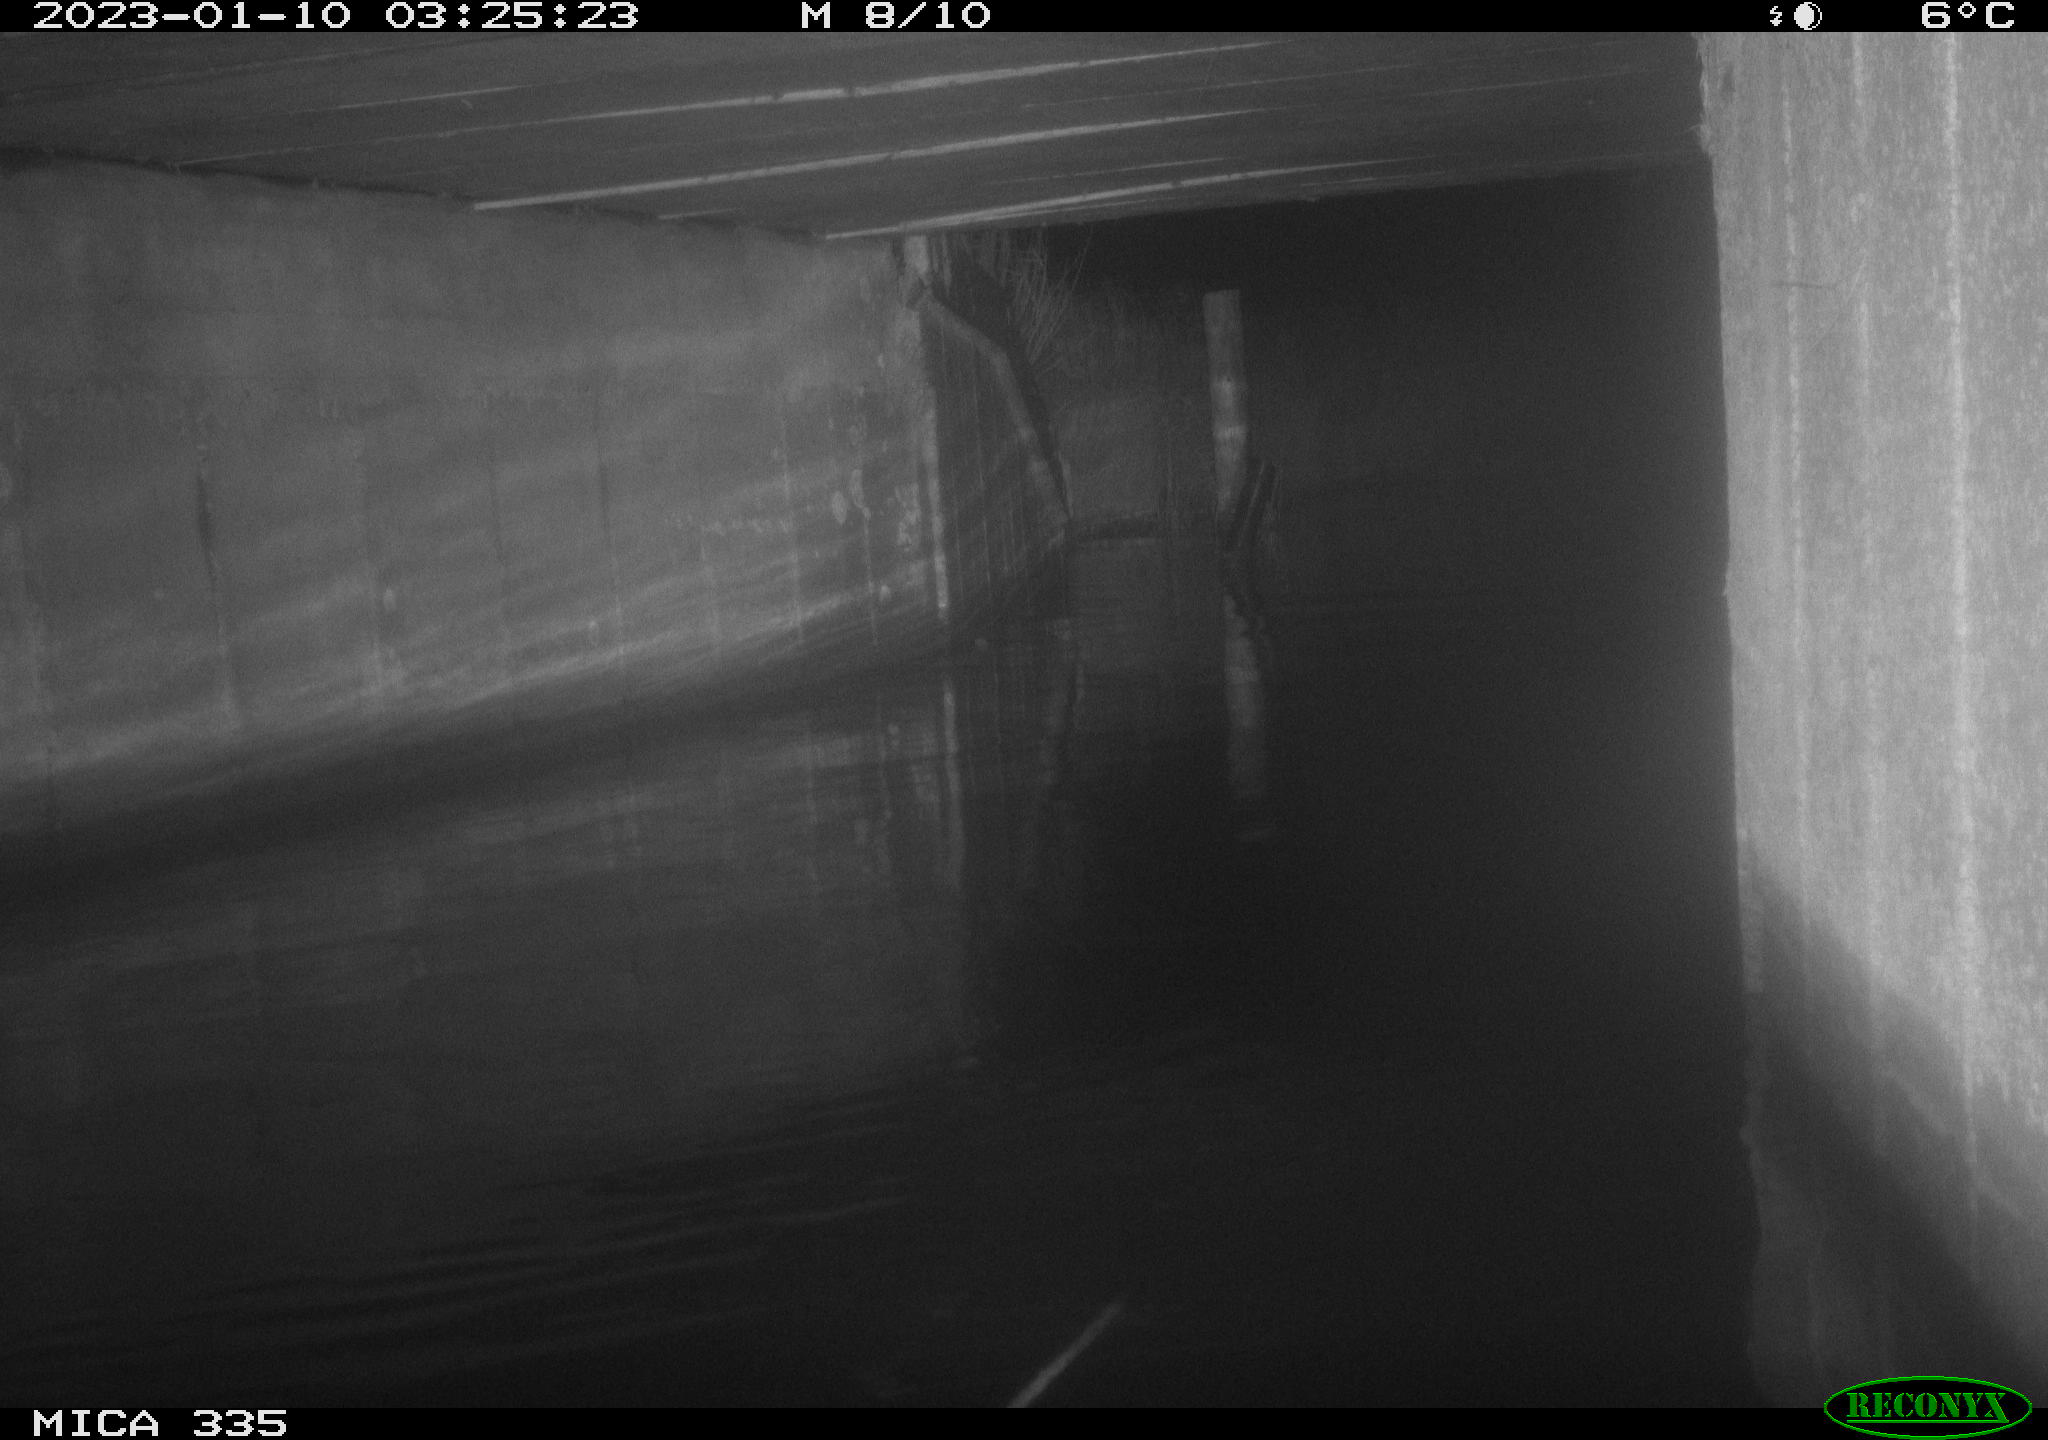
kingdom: Animalia
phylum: Chordata
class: Aves
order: Anseriformes
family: Anatidae
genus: Cygnus
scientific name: Cygnus olor
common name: Mute swan
